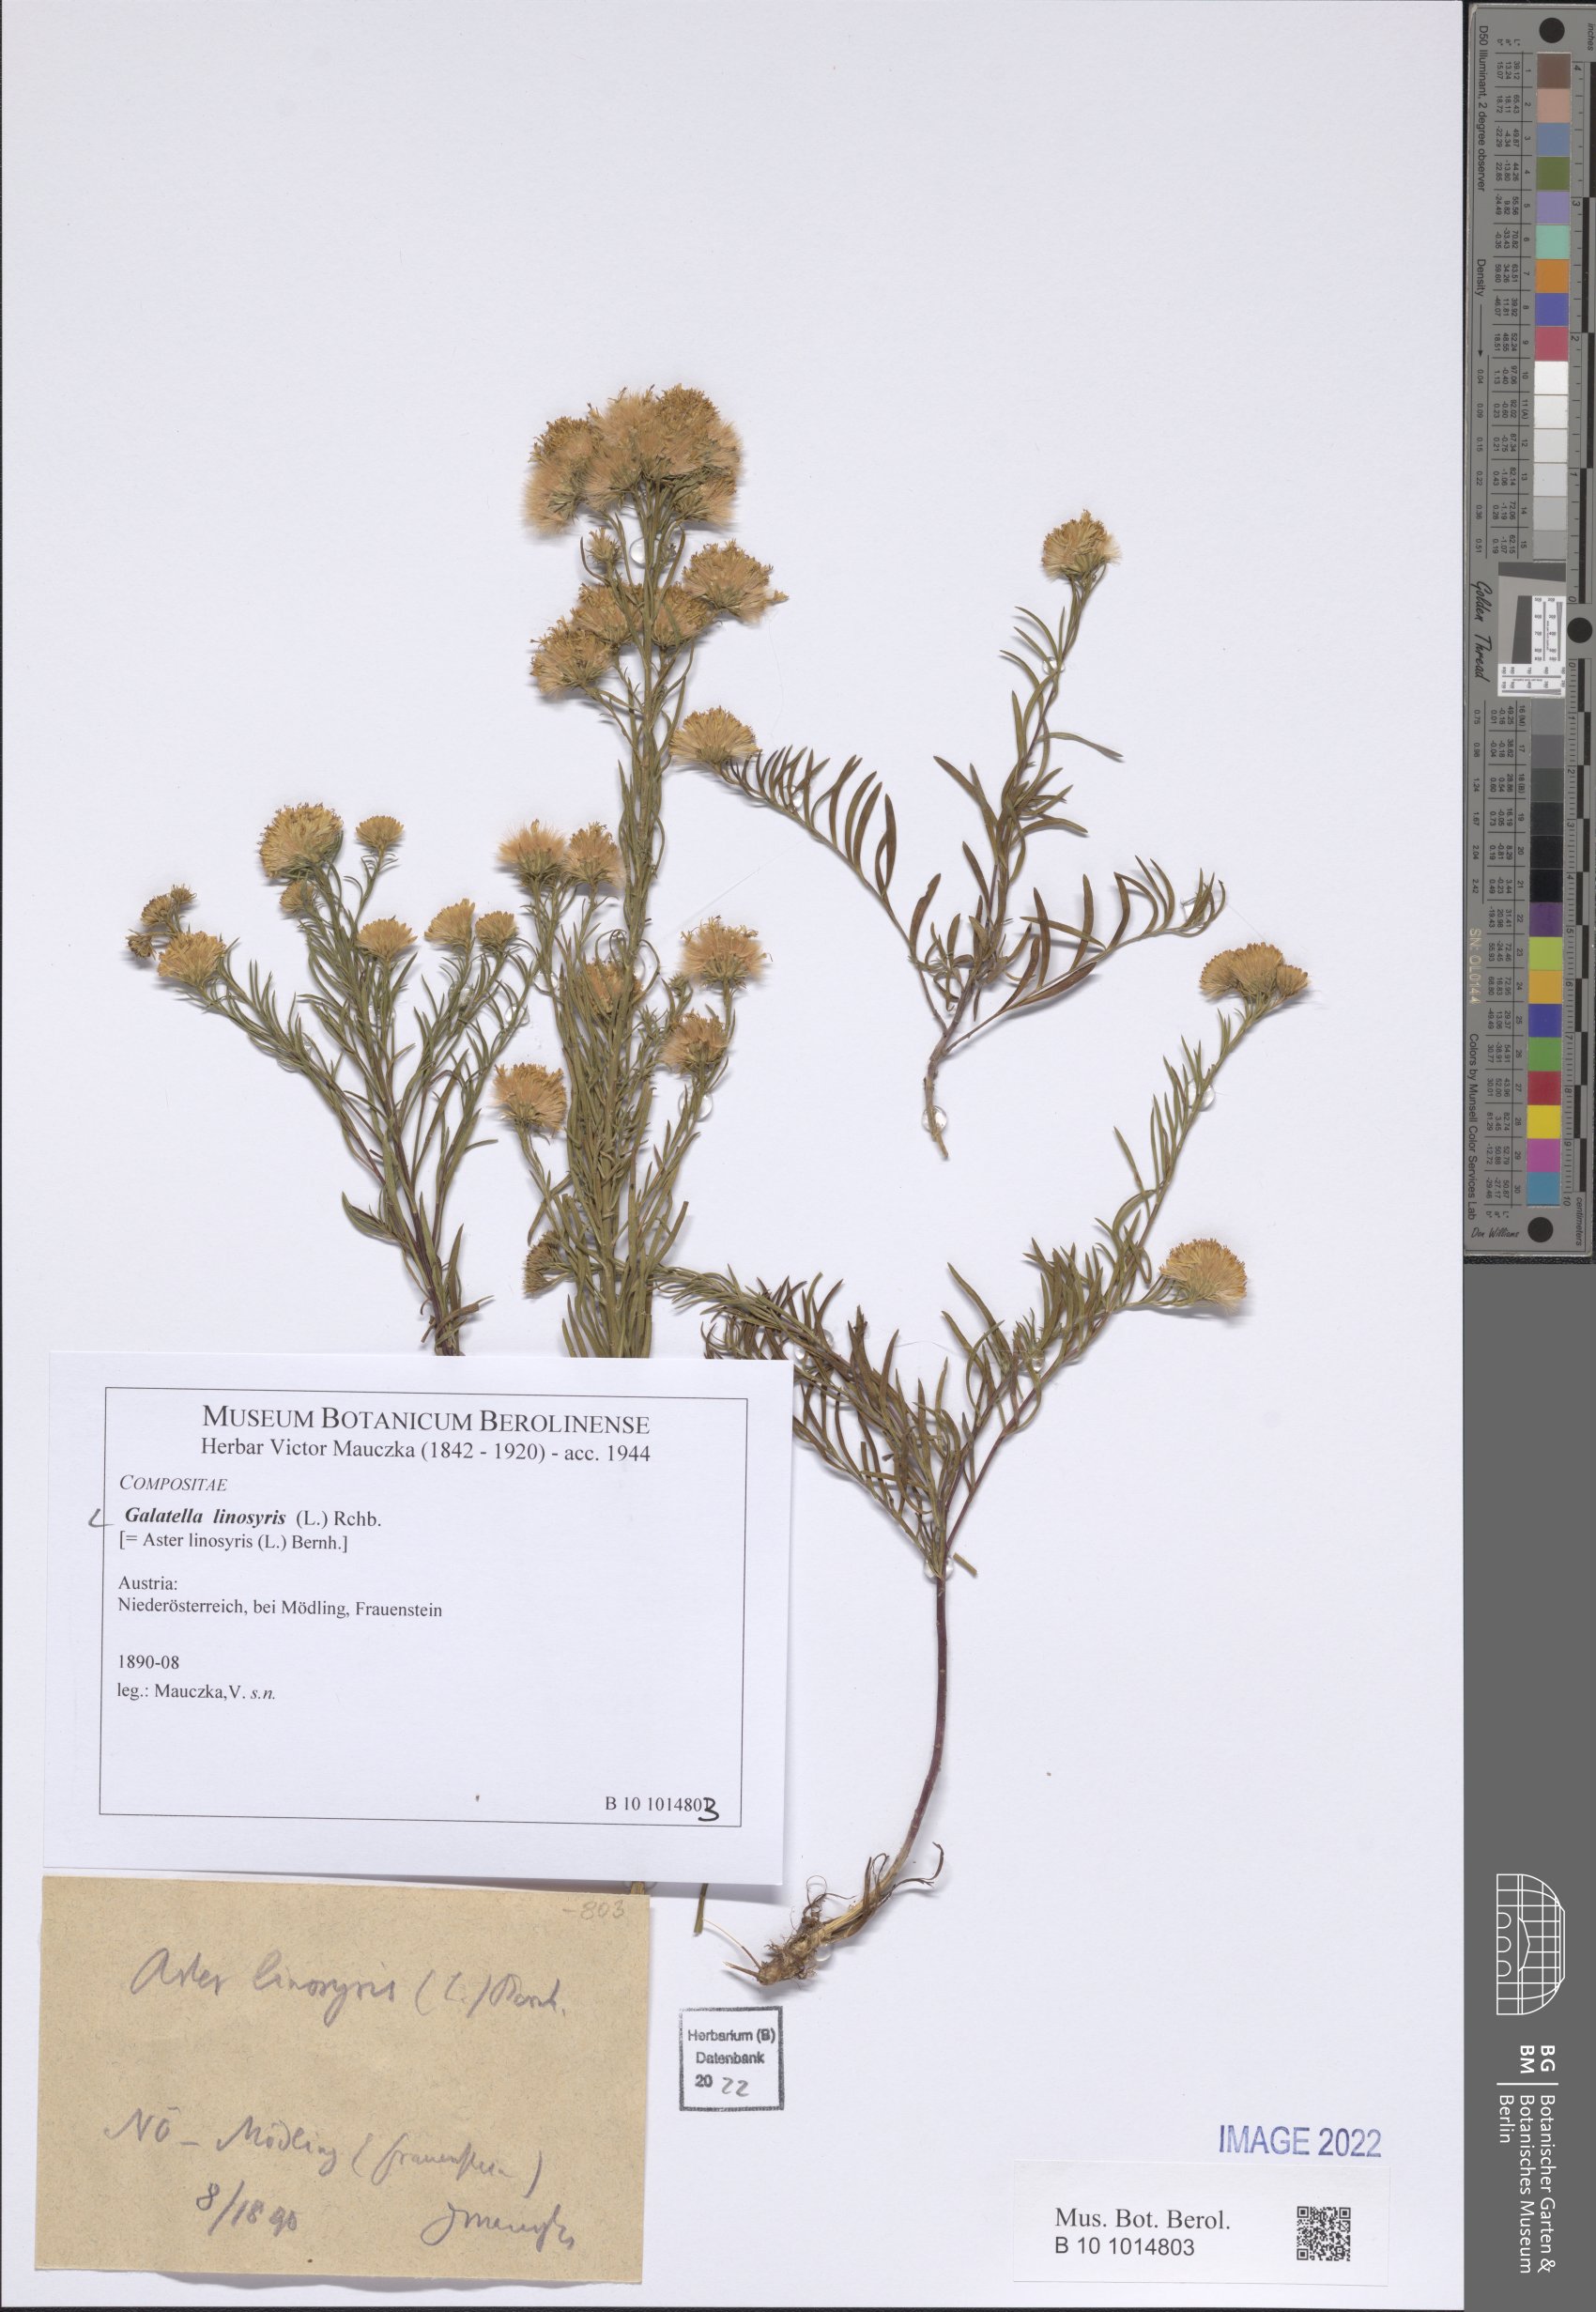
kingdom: Plantae
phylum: Tracheophyta
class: Magnoliopsida
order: Asterales
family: Asteraceae
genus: Galatella
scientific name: Galatella linosyris
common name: Goldilocks aster
